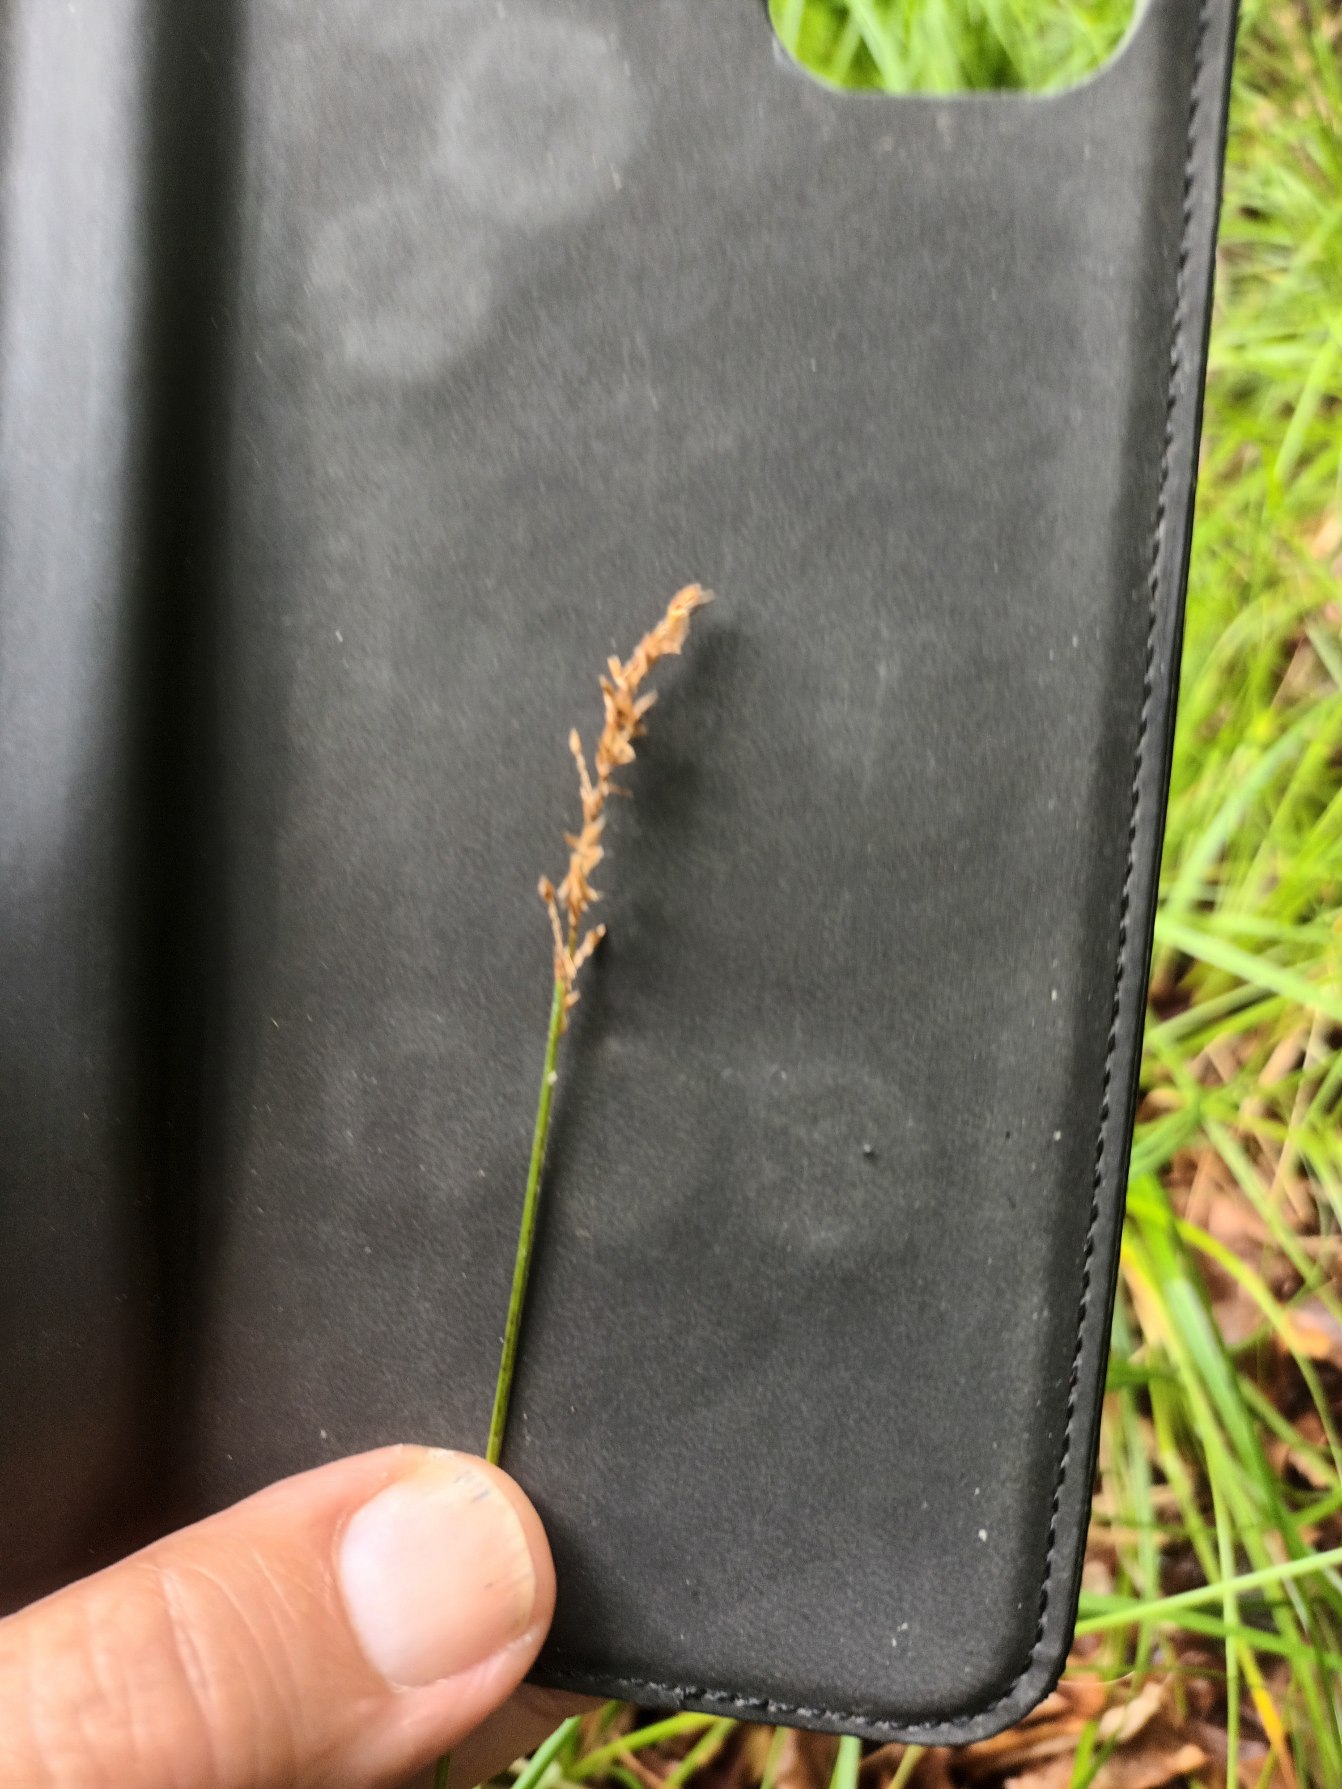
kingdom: Plantae
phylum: Tracheophyta
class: Liliopsida
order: Poales
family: Cyperaceae
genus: Carex
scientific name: Carex elongata
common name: Forlænget star
